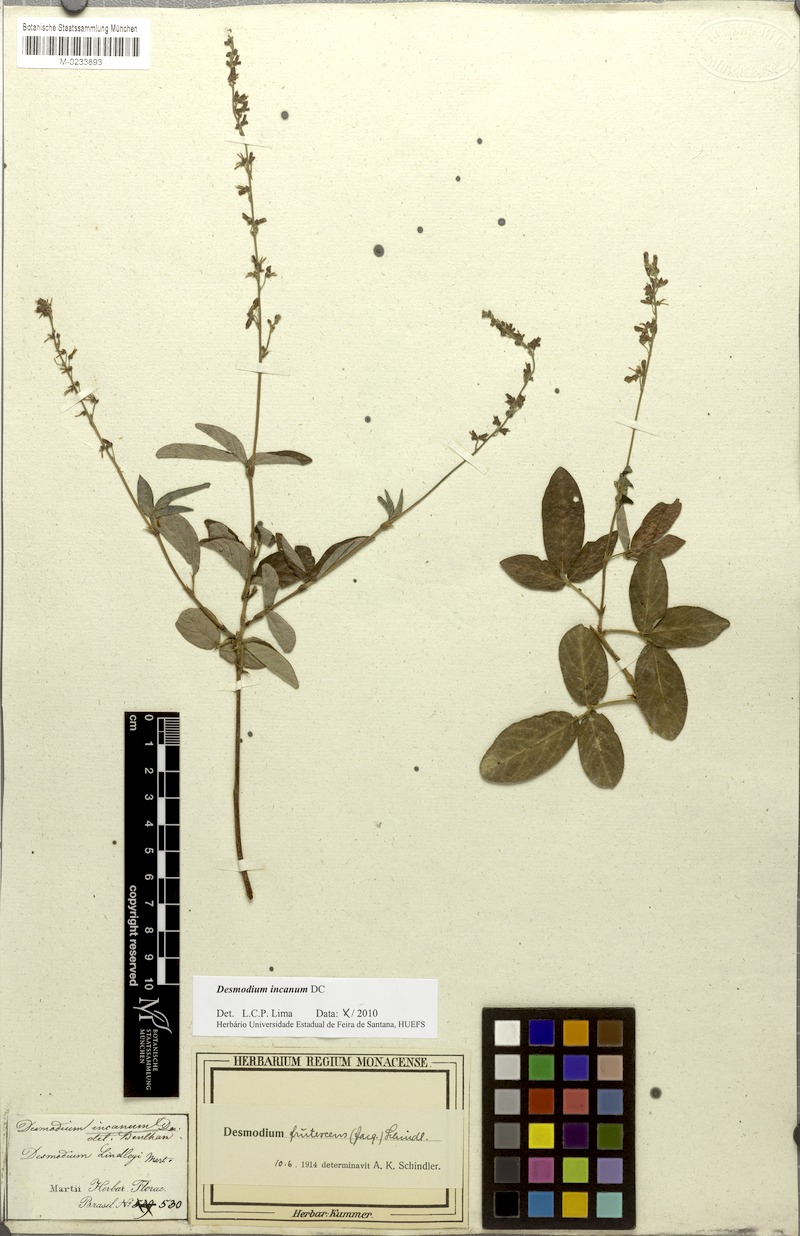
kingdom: Plantae
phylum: Tracheophyta
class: Magnoliopsida
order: Fabales
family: Fabaceae
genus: Desmodium
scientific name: Desmodium incanum
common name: Tickclover
